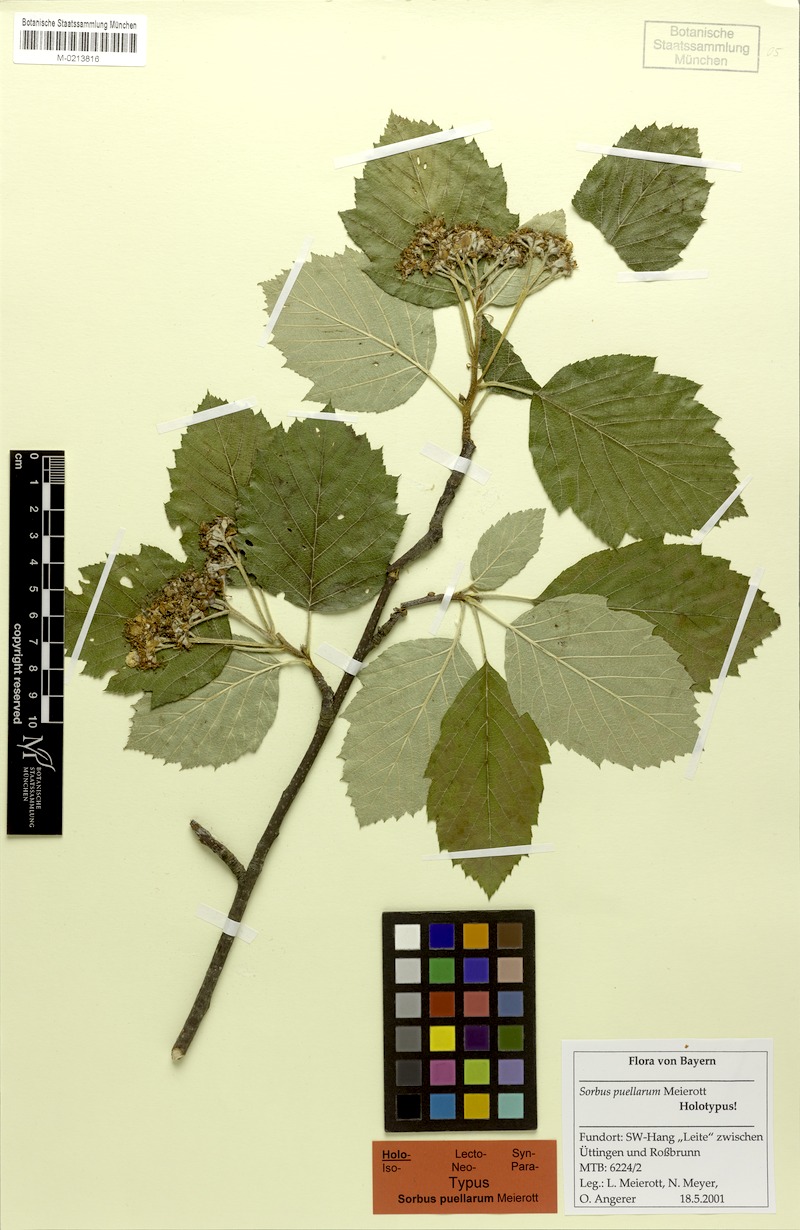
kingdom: Plantae
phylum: Tracheophyta
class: Magnoliopsida
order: Rosales
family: Rosaceae
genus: Karpatiosorbus
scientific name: Karpatiosorbus puellarum
